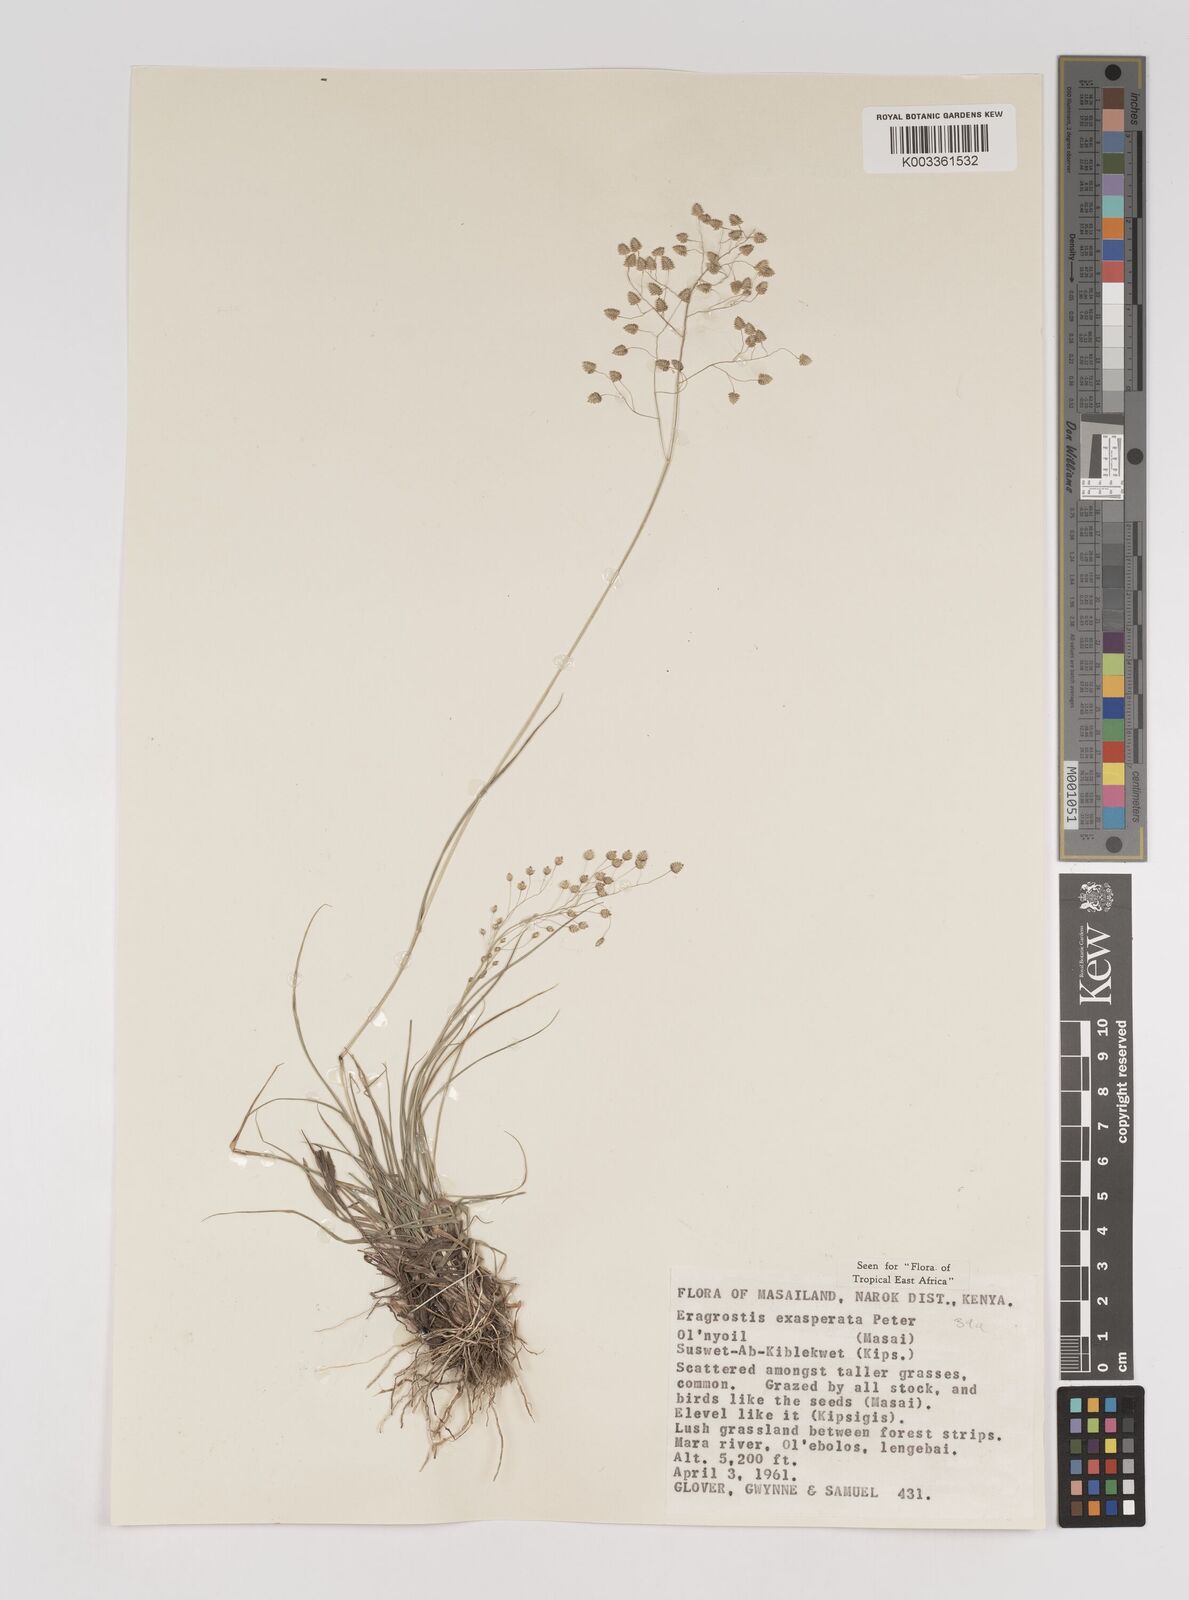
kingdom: Plantae
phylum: Tracheophyta
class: Liliopsida
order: Poales
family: Poaceae
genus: Eragrostis
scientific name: Eragrostis exasperata
